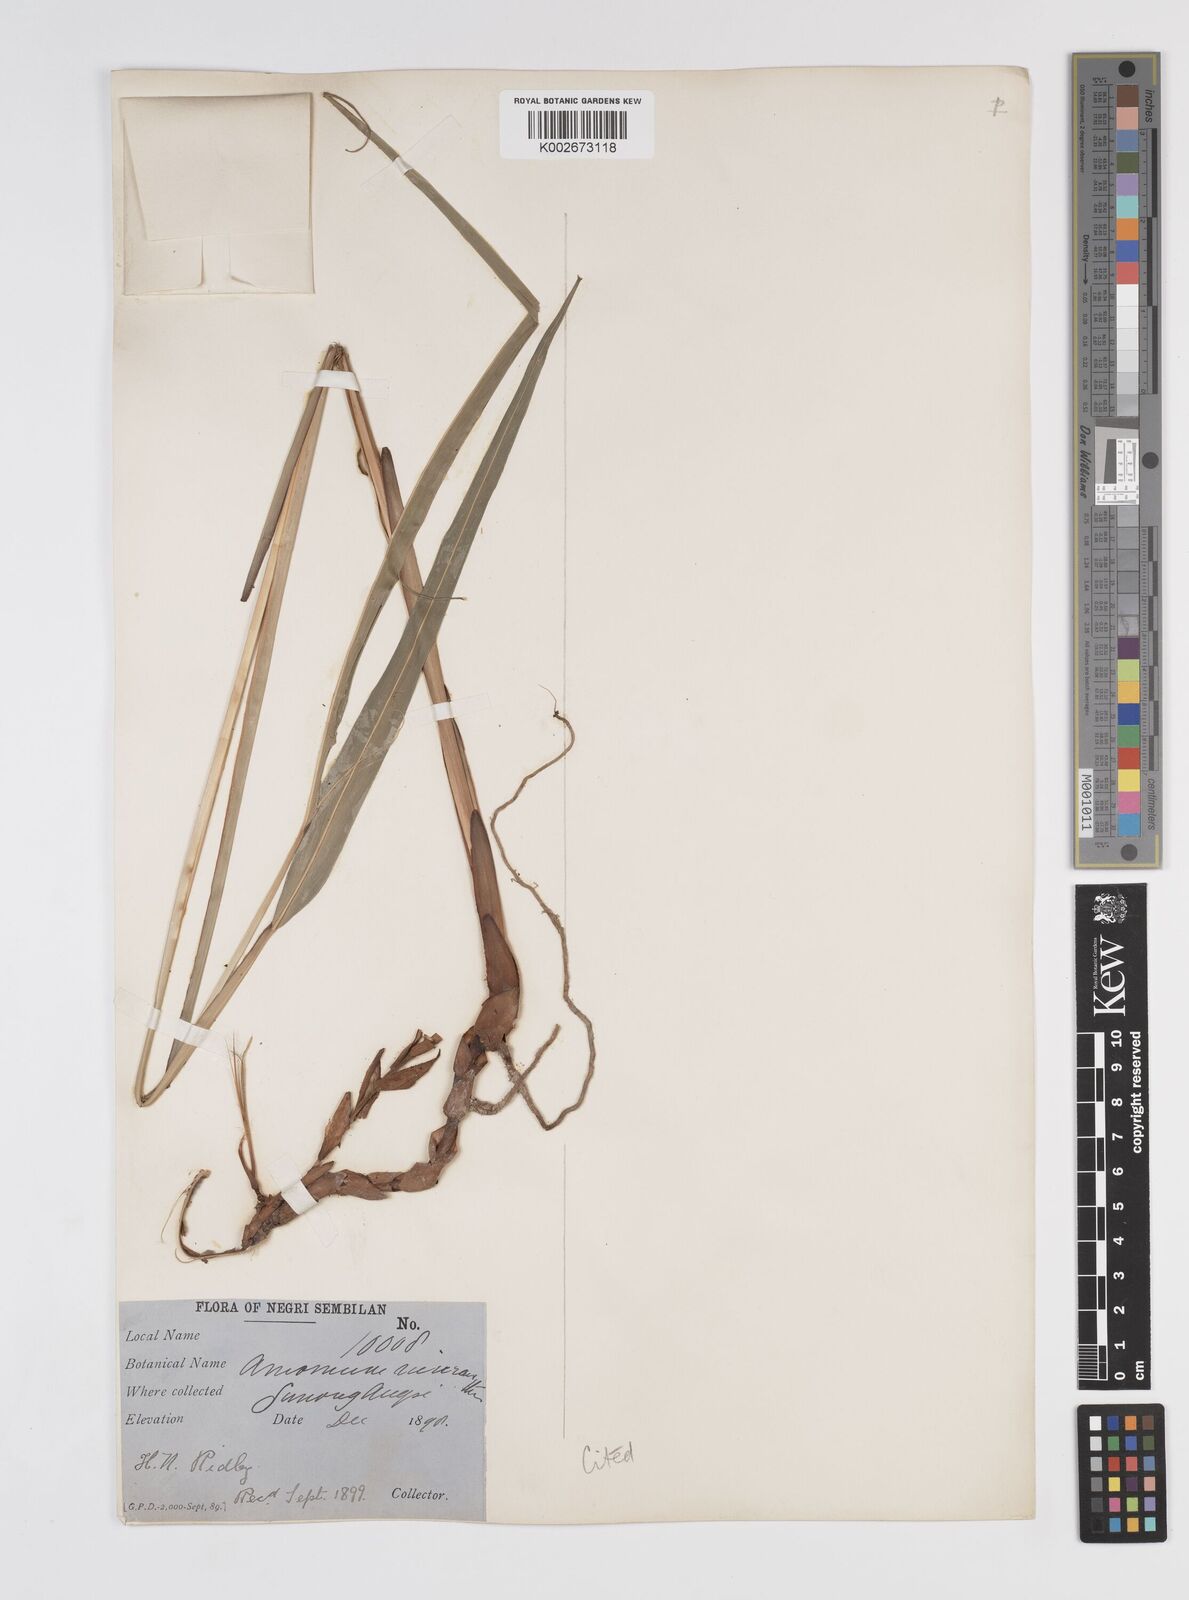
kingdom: Plantae
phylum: Tracheophyta
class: Liliopsida
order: Zingiberales
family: Zingiberaceae
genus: Wurfbainia
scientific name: Wurfbainia micrantha
